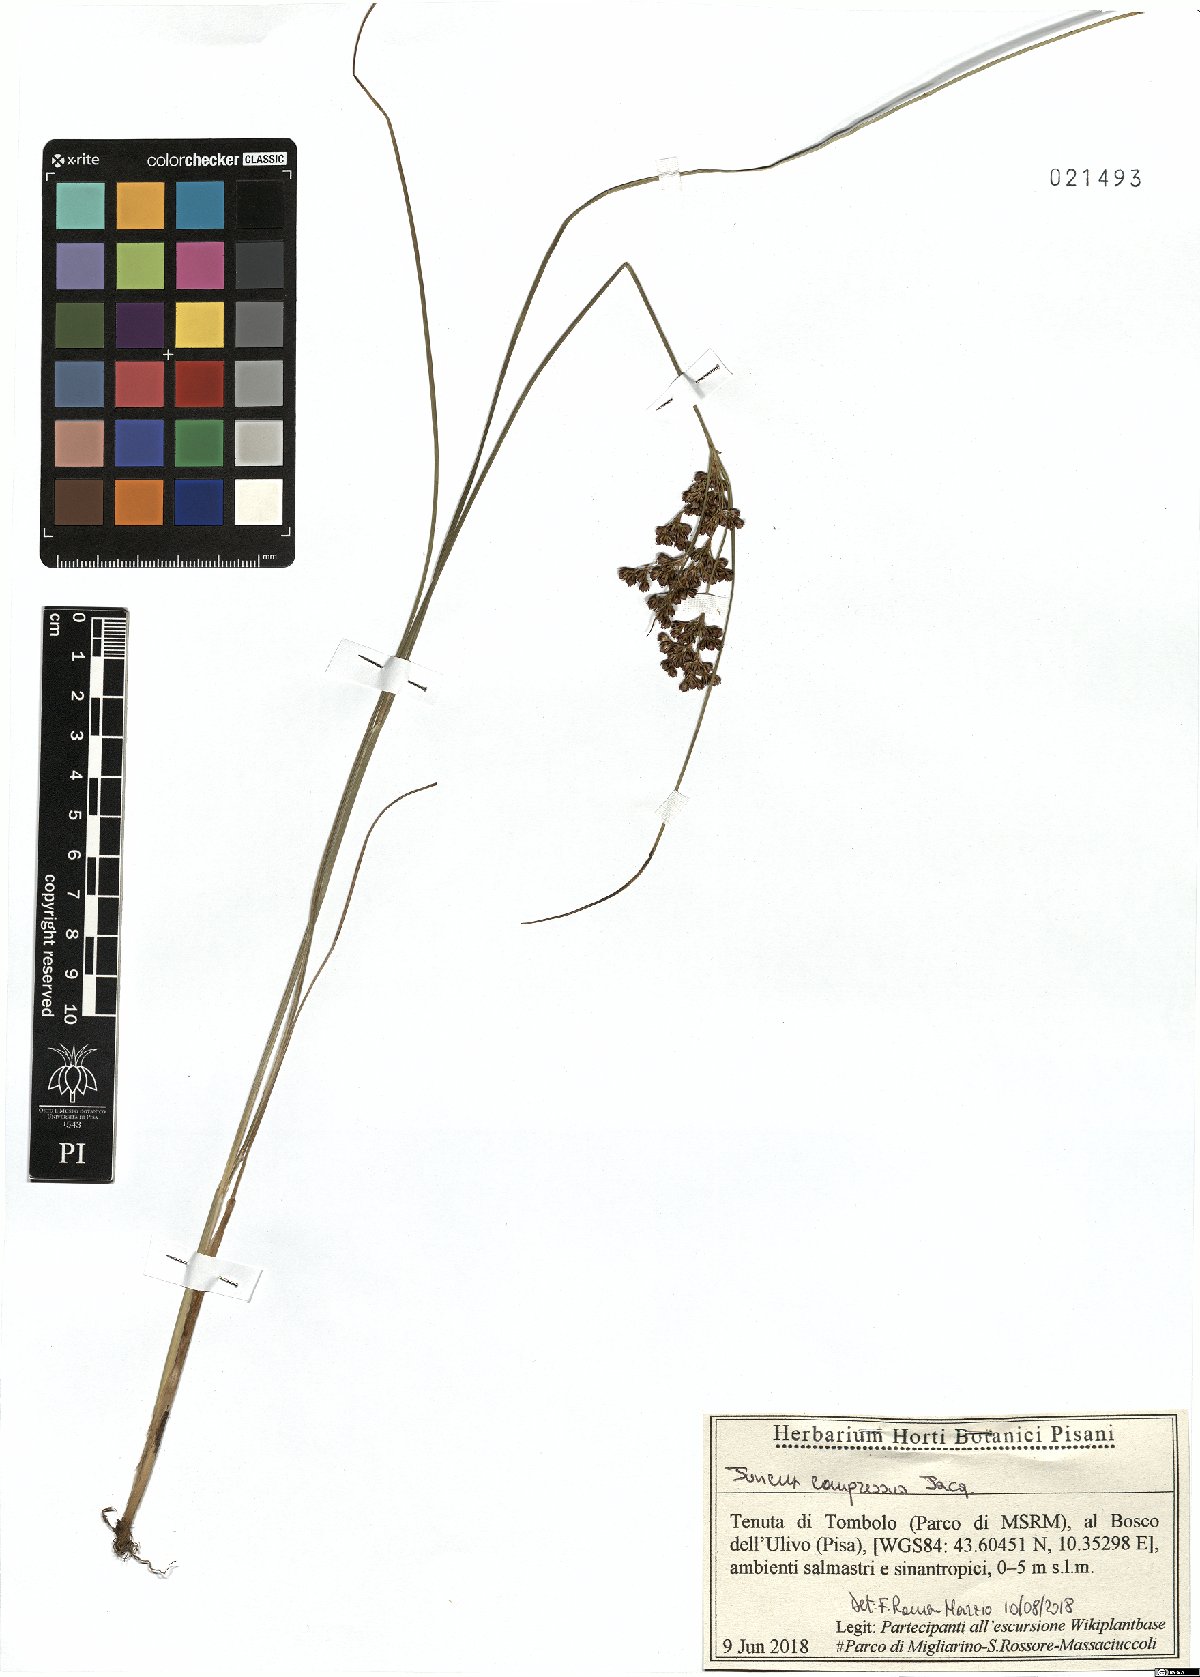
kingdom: Plantae
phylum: Tracheophyta
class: Liliopsida
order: Poales
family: Juncaceae
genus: Juncus
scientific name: Juncus compressus
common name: Round-fruited rush
